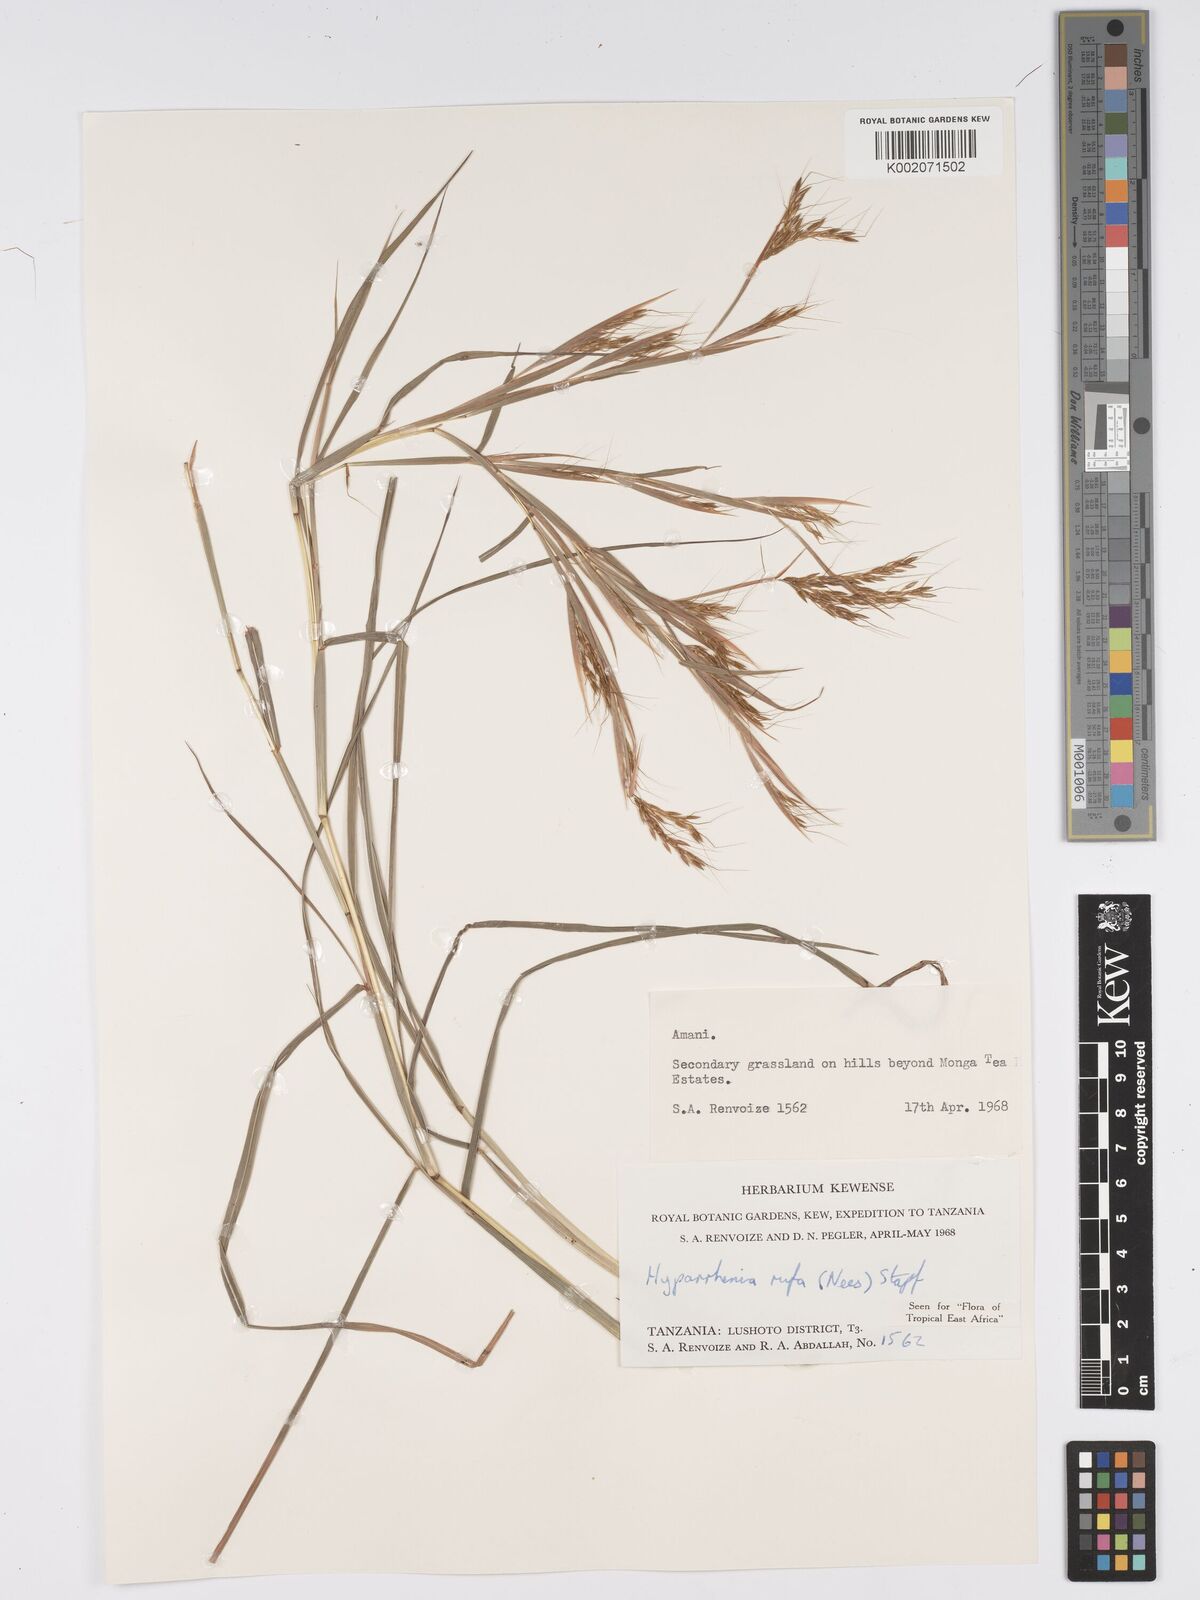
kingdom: Plantae
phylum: Tracheophyta
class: Liliopsida
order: Poales
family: Poaceae
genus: Hyparrhenia
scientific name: Hyparrhenia rufa
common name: Jaraguagrass
